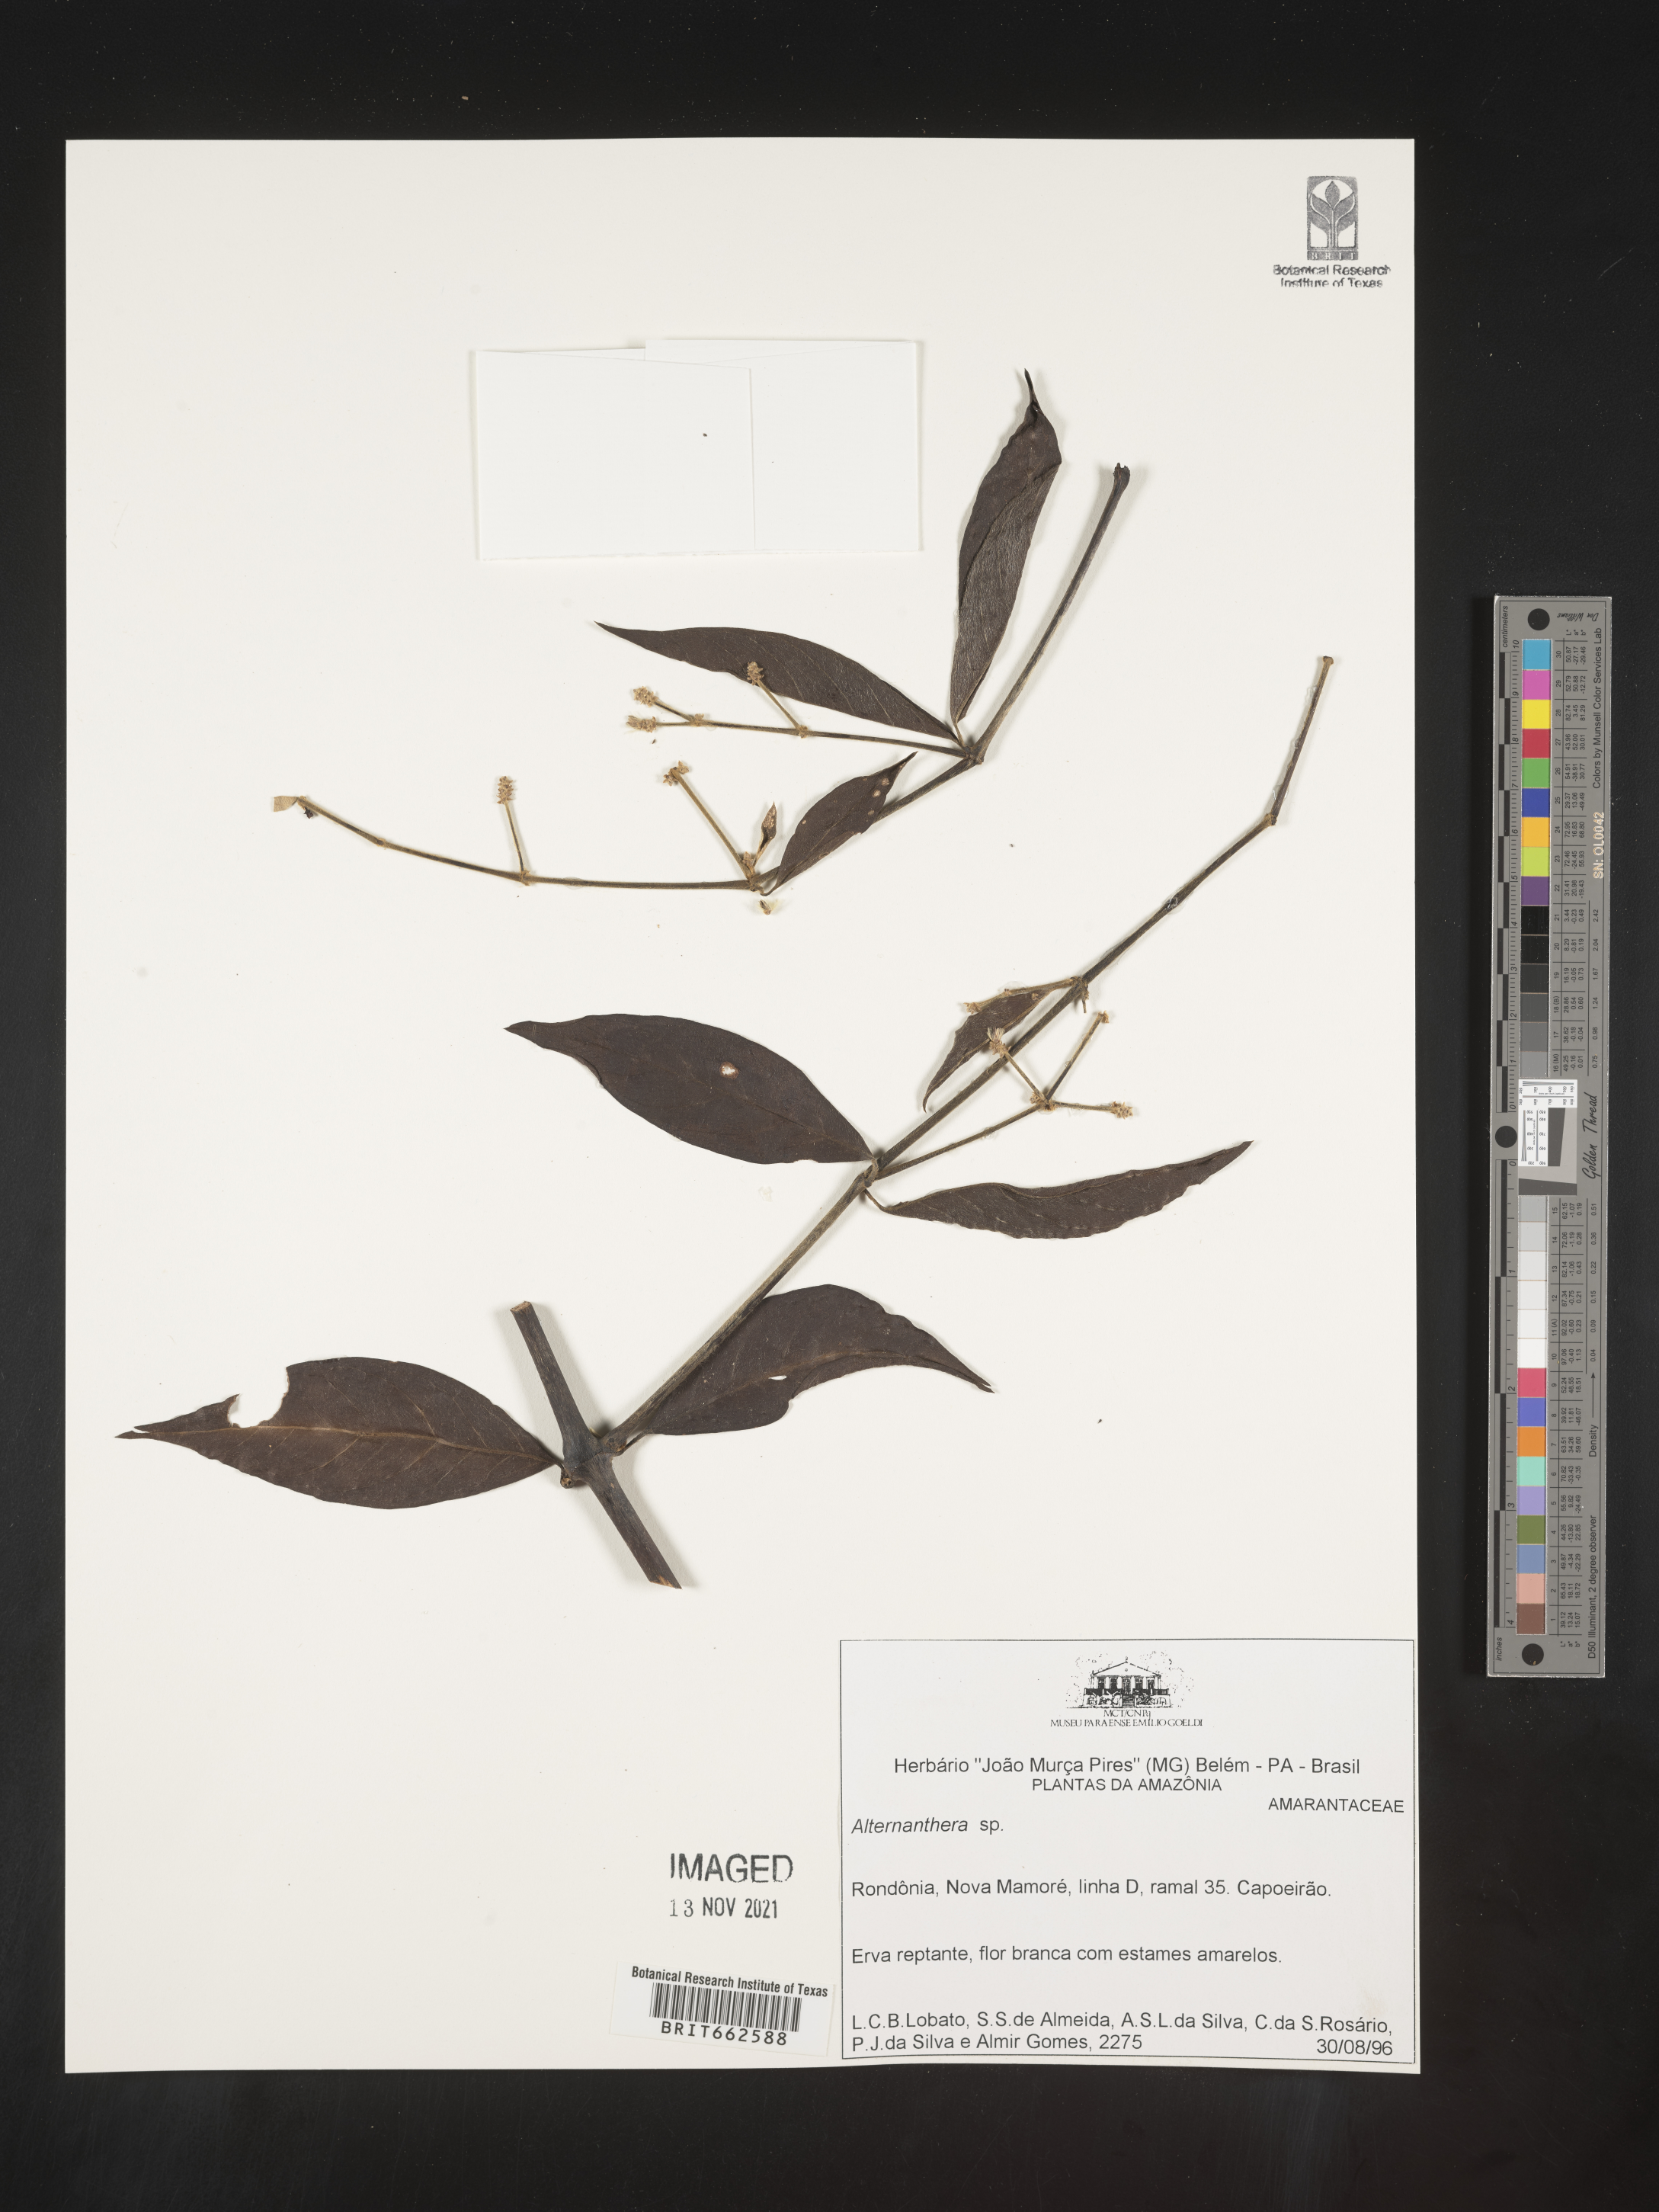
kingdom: Plantae
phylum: Tracheophyta
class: Magnoliopsida
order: Caryophyllales
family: Amaranthaceae
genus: Alternanthera
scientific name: Alternanthera
